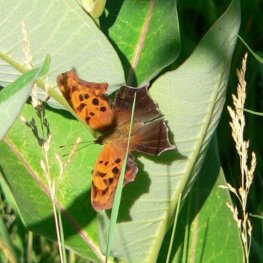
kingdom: Animalia
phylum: Arthropoda
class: Insecta
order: Lepidoptera
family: Nymphalidae
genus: Polygonia
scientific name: Polygonia interrogationis
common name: Question Mark
